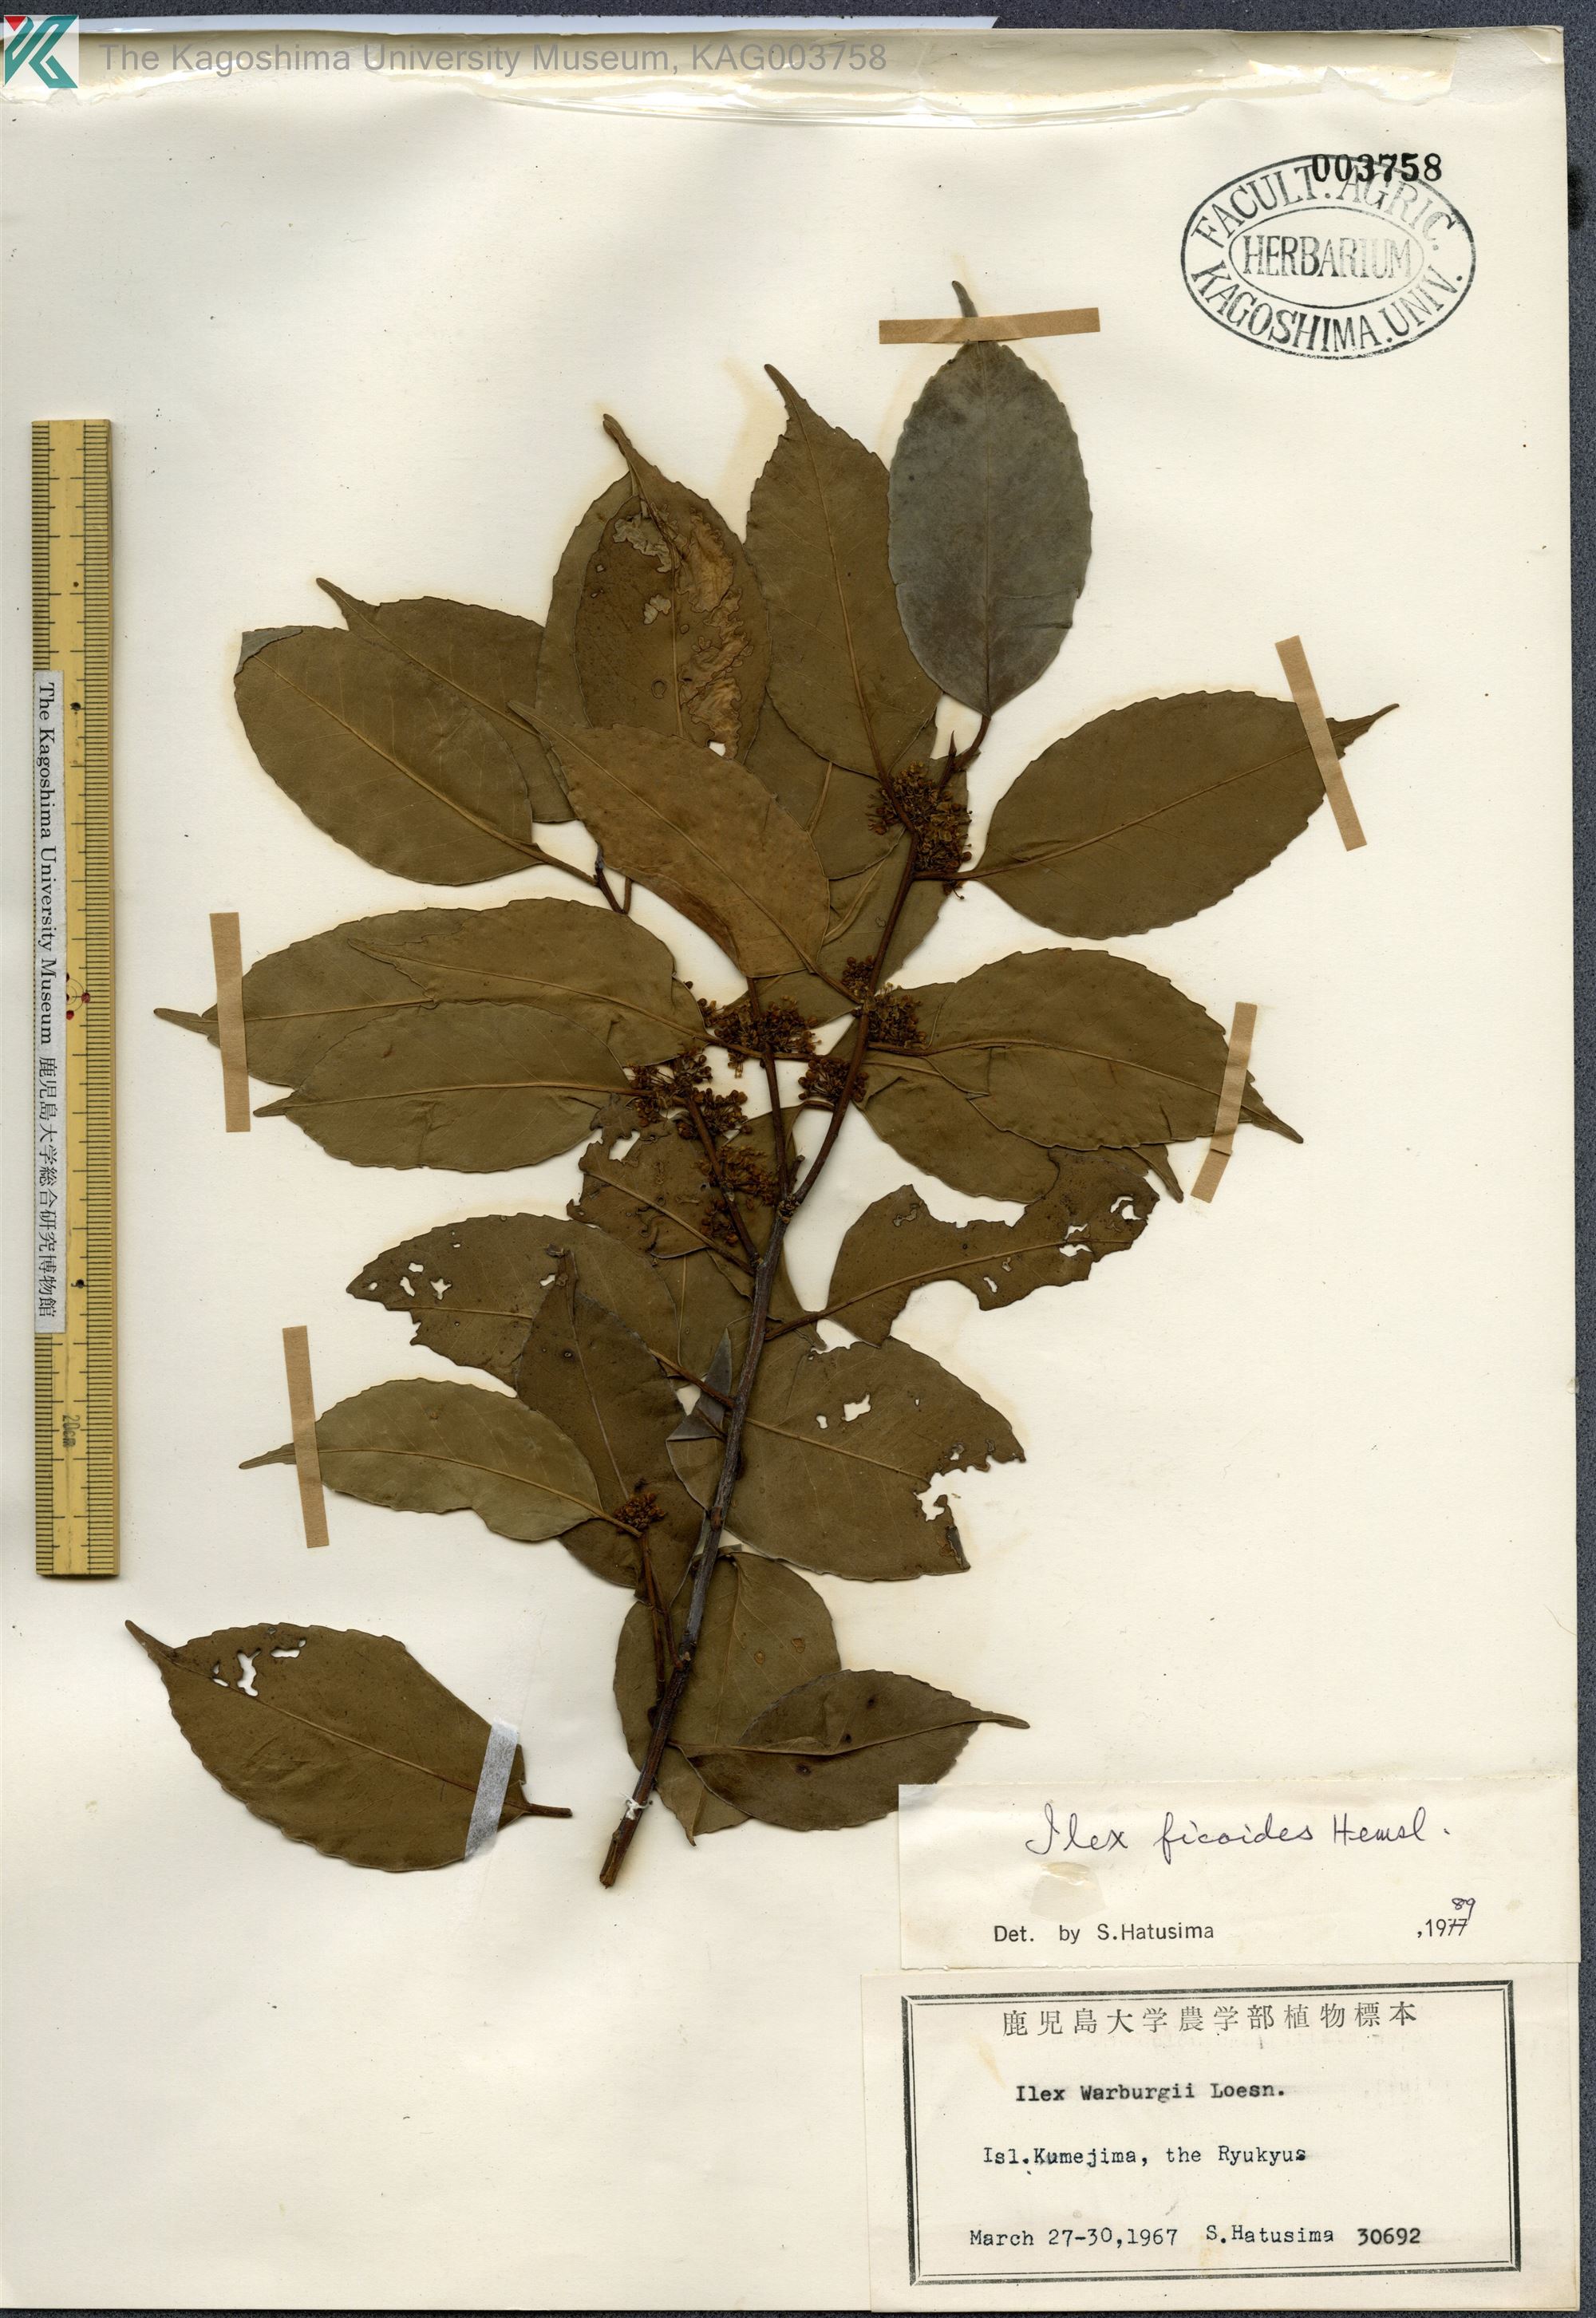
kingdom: Plantae
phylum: Tracheophyta
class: Magnoliopsida
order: Aquifoliales
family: Aquifoliaceae
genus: Ilex
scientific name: Ilex warburgii
